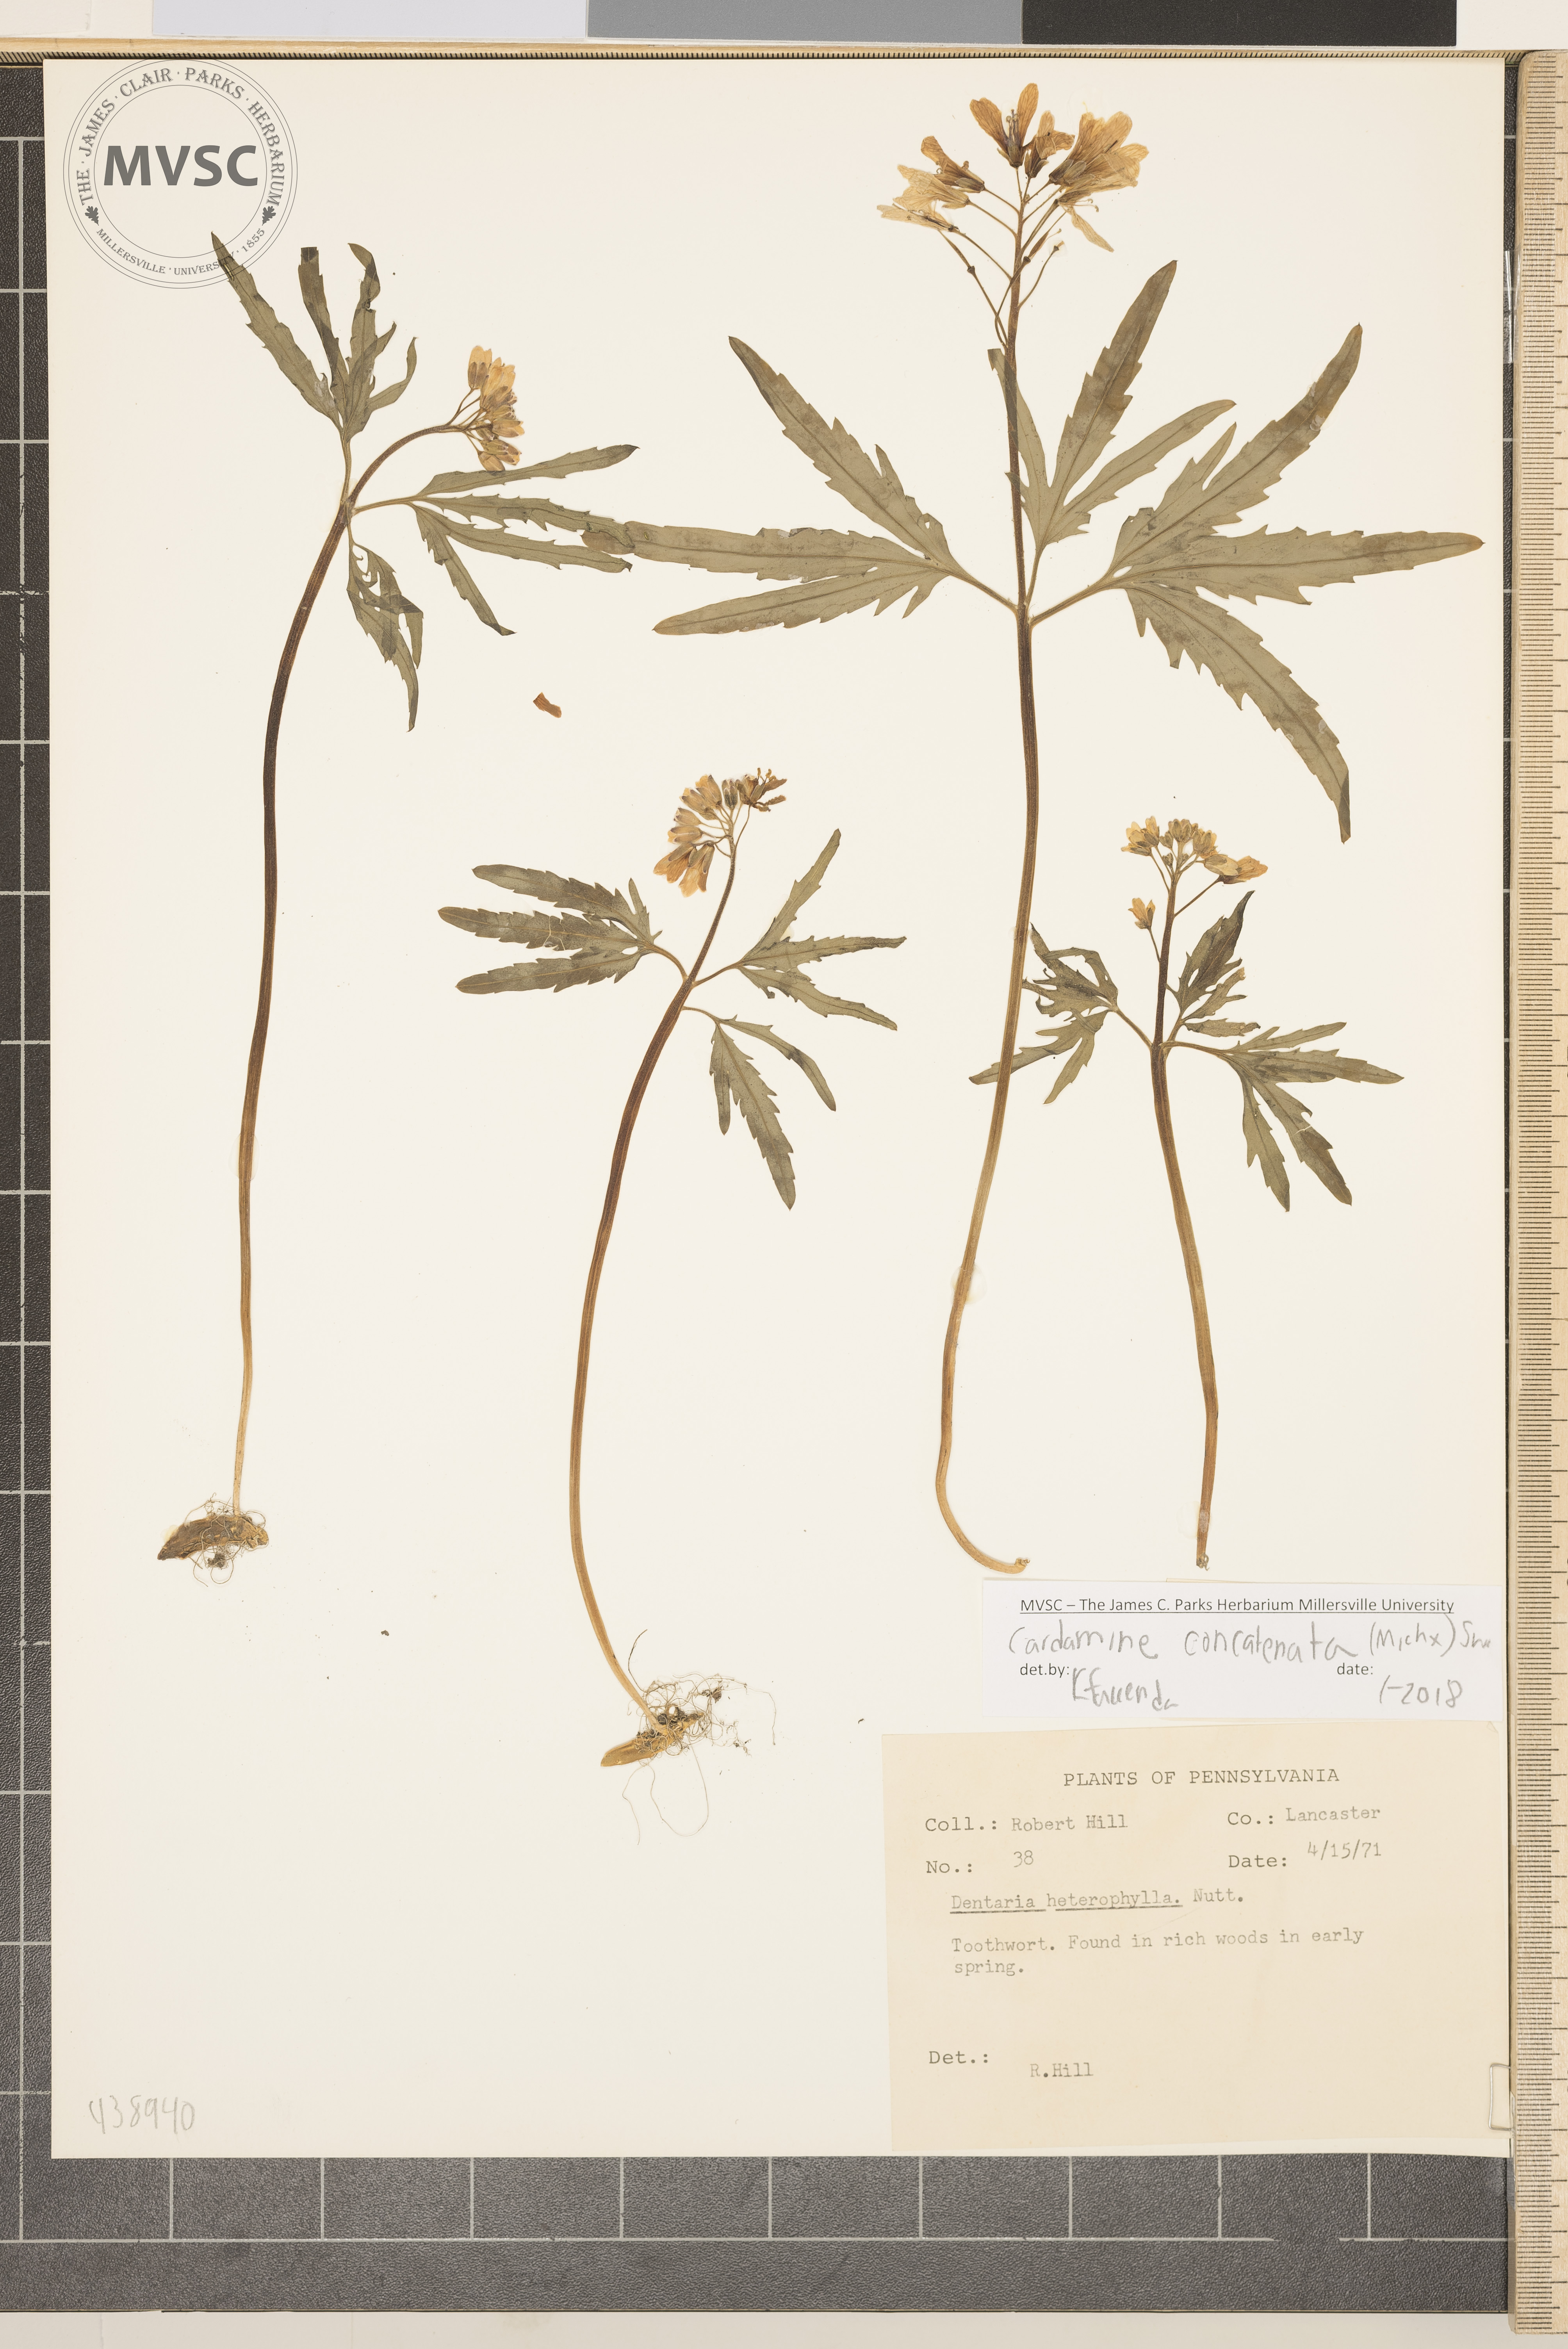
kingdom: Plantae
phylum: Tracheophyta
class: Magnoliopsida
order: Brassicales
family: Brassicaceae
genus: Cardamine
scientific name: Cardamine concatenata
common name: Toothwort
